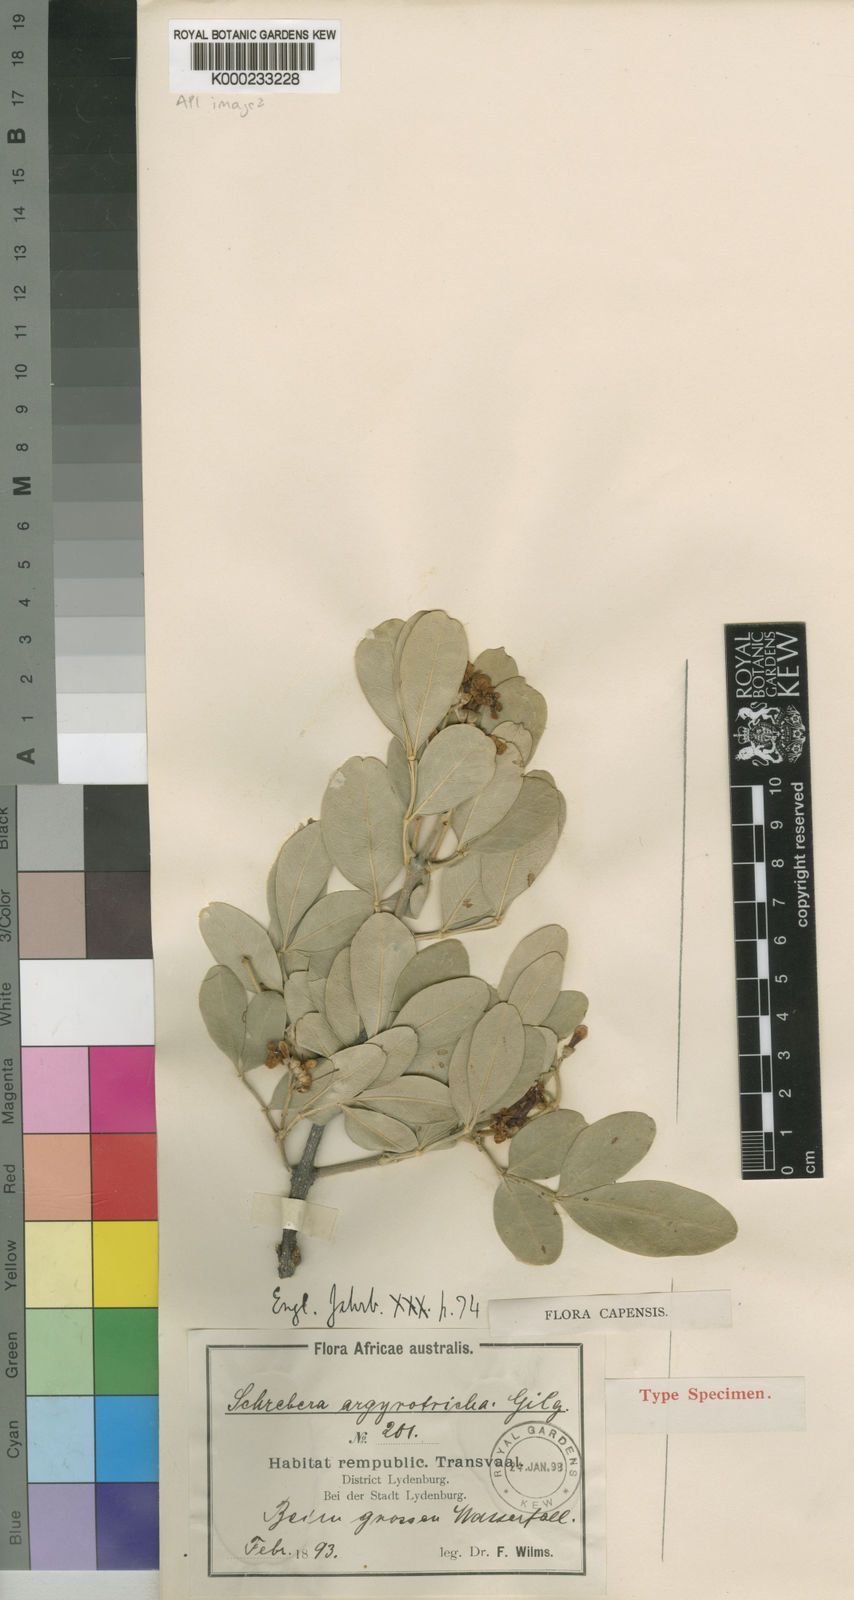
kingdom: Plantae
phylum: Tracheophyta
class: Magnoliopsida
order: Lamiales
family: Oleaceae
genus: Schrebera
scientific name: Schrebera alata
